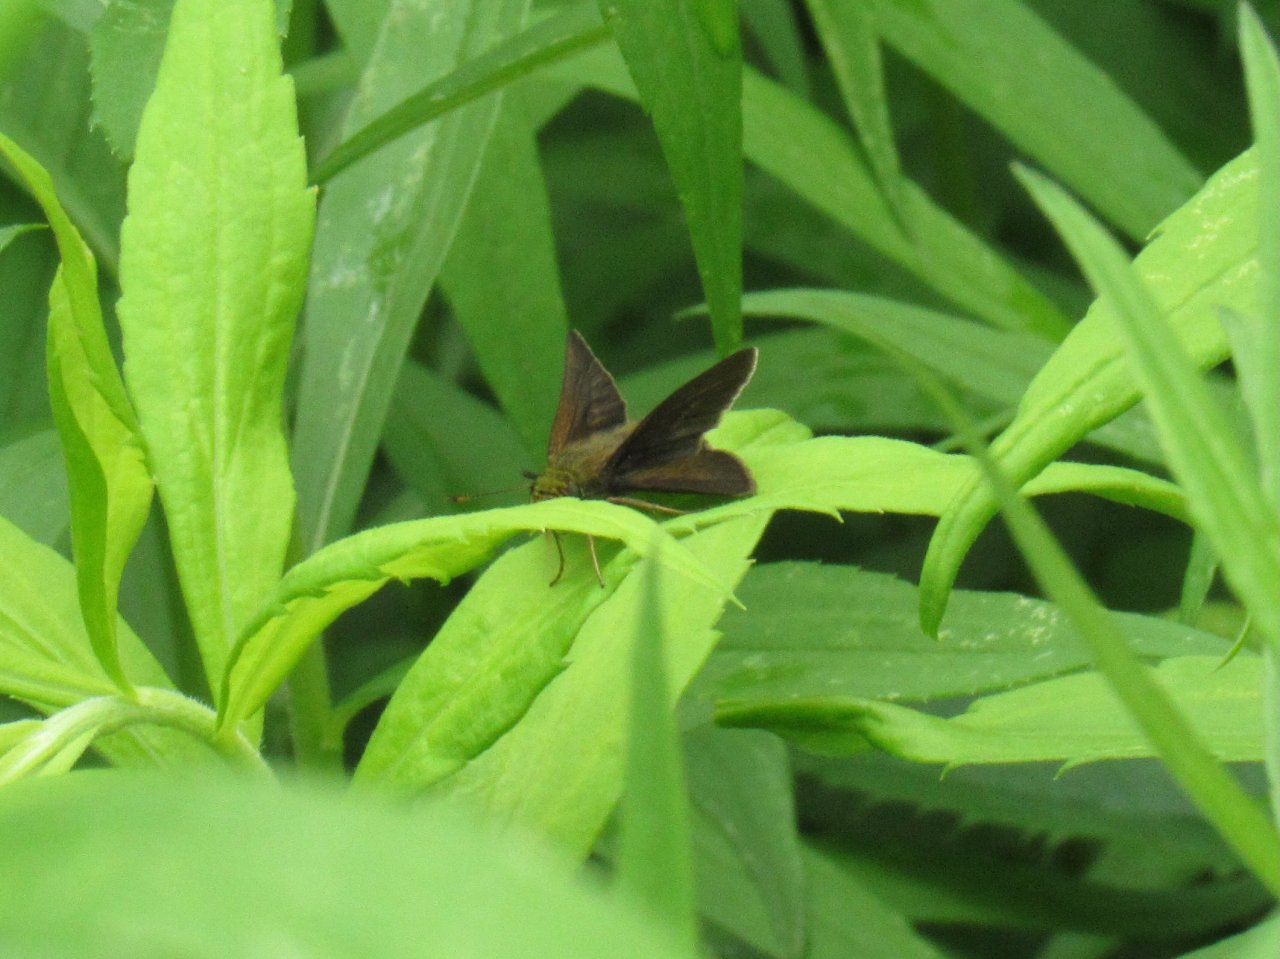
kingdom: Animalia
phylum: Arthropoda
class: Insecta
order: Lepidoptera
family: Hesperiidae
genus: Euphyes
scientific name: Euphyes vestris
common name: Dun Skipper
